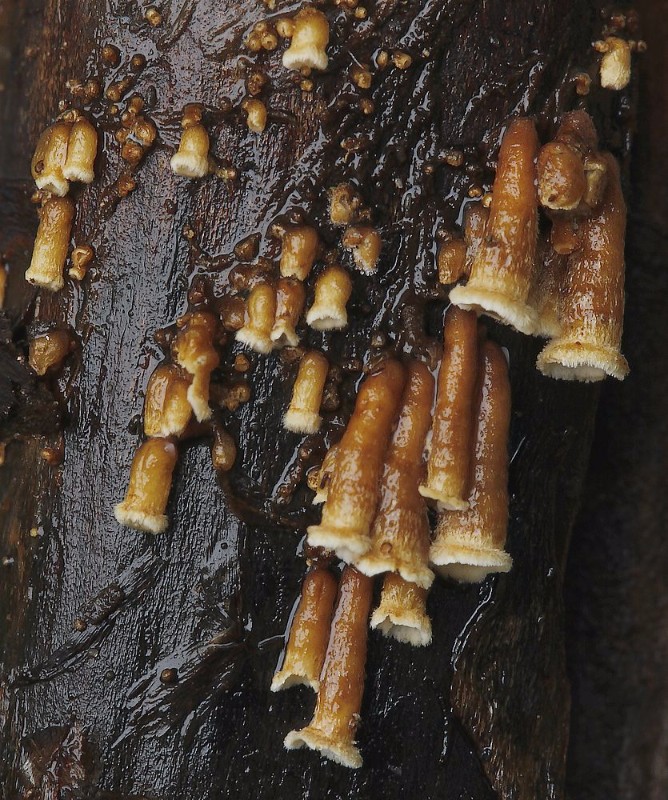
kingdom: Fungi
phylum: Basidiomycota
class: Agaricomycetes
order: Agaricales
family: Niaceae
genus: Woldmaria
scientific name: Woldmaria filicina
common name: bregnerør
